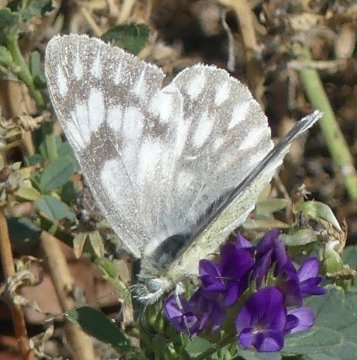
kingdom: Animalia
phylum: Arthropoda
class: Insecta
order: Lepidoptera
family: Pieridae
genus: Pontia
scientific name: Pontia occidentalis
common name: Western White
